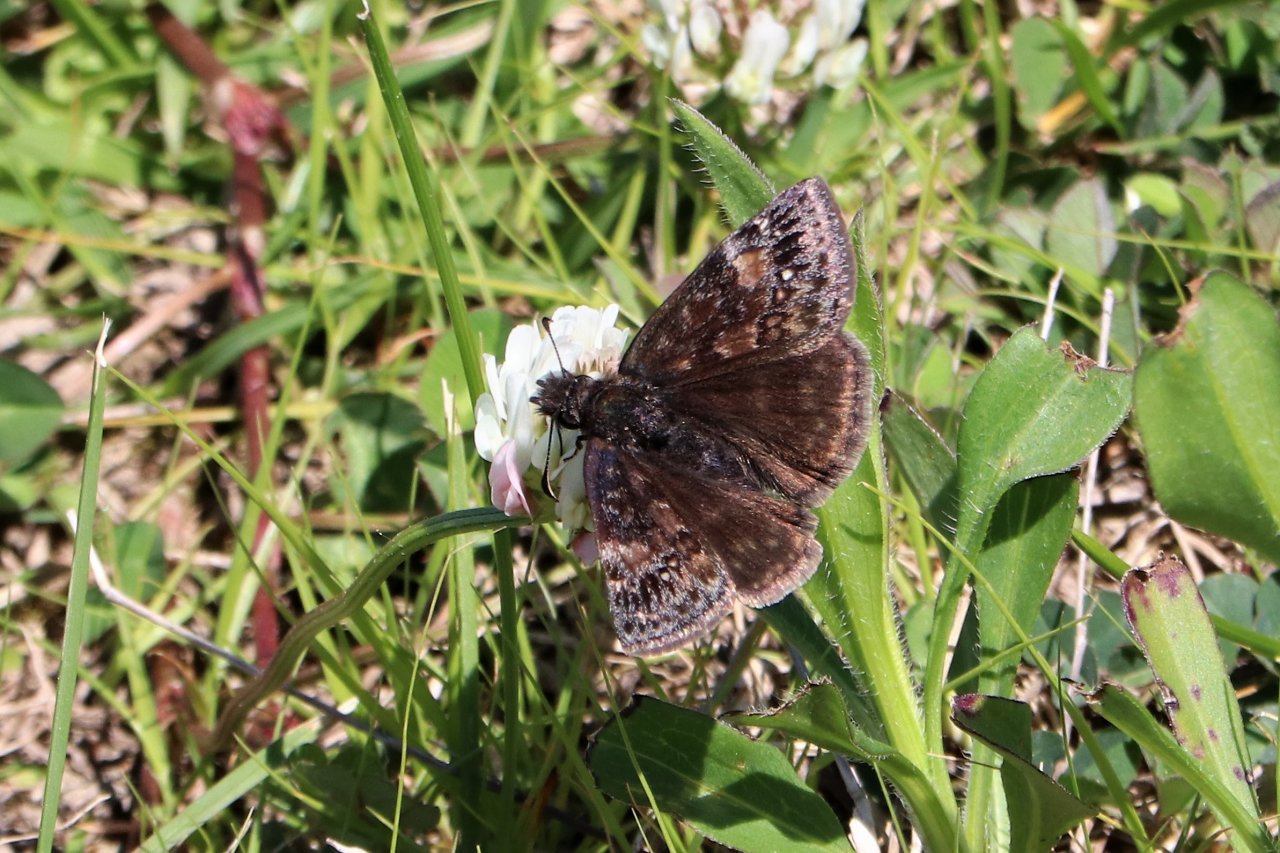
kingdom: Animalia
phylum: Arthropoda
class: Insecta
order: Lepidoptera
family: Hesperiidae
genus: Gesta
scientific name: Gesta
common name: Wild Indigo Duskywing
